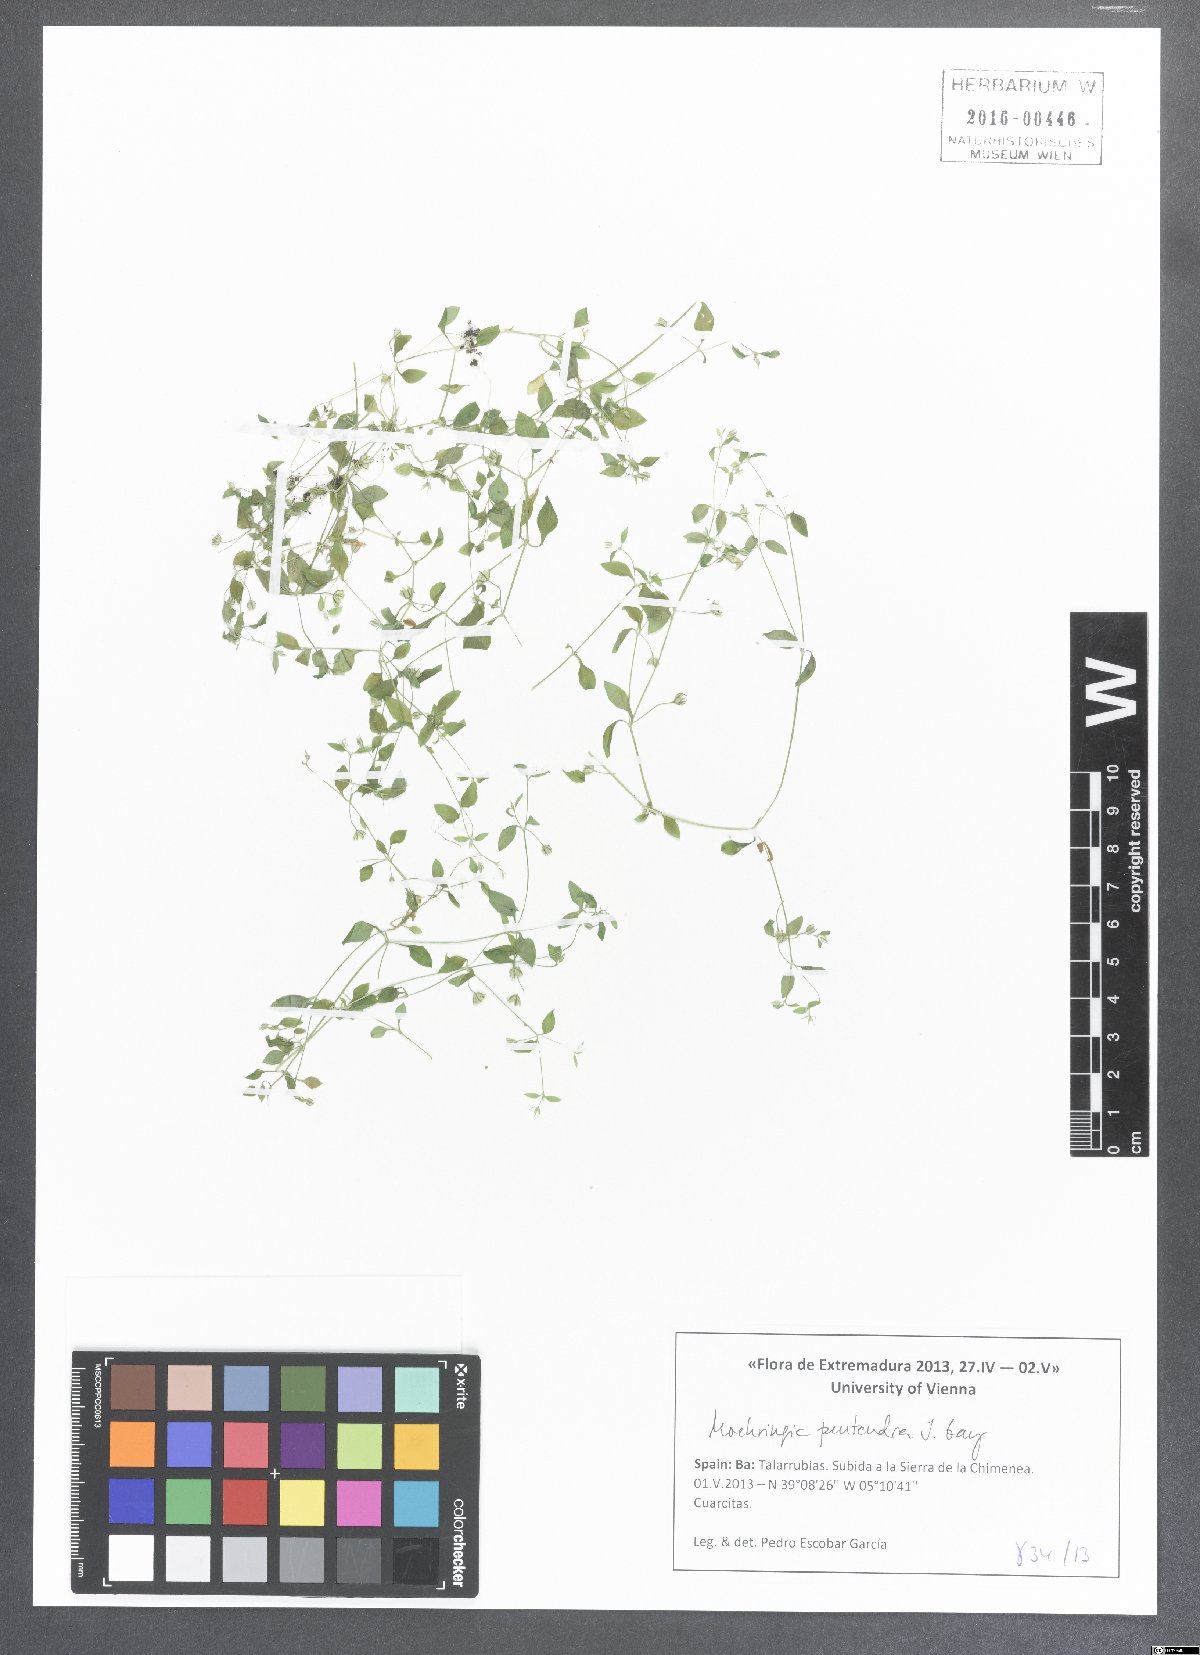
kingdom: Plantae
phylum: Tracheophyta
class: Magnoliopsida
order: Caryophyllales
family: Caryophyllaceae
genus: Moehringia
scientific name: Moehringia pentandra
